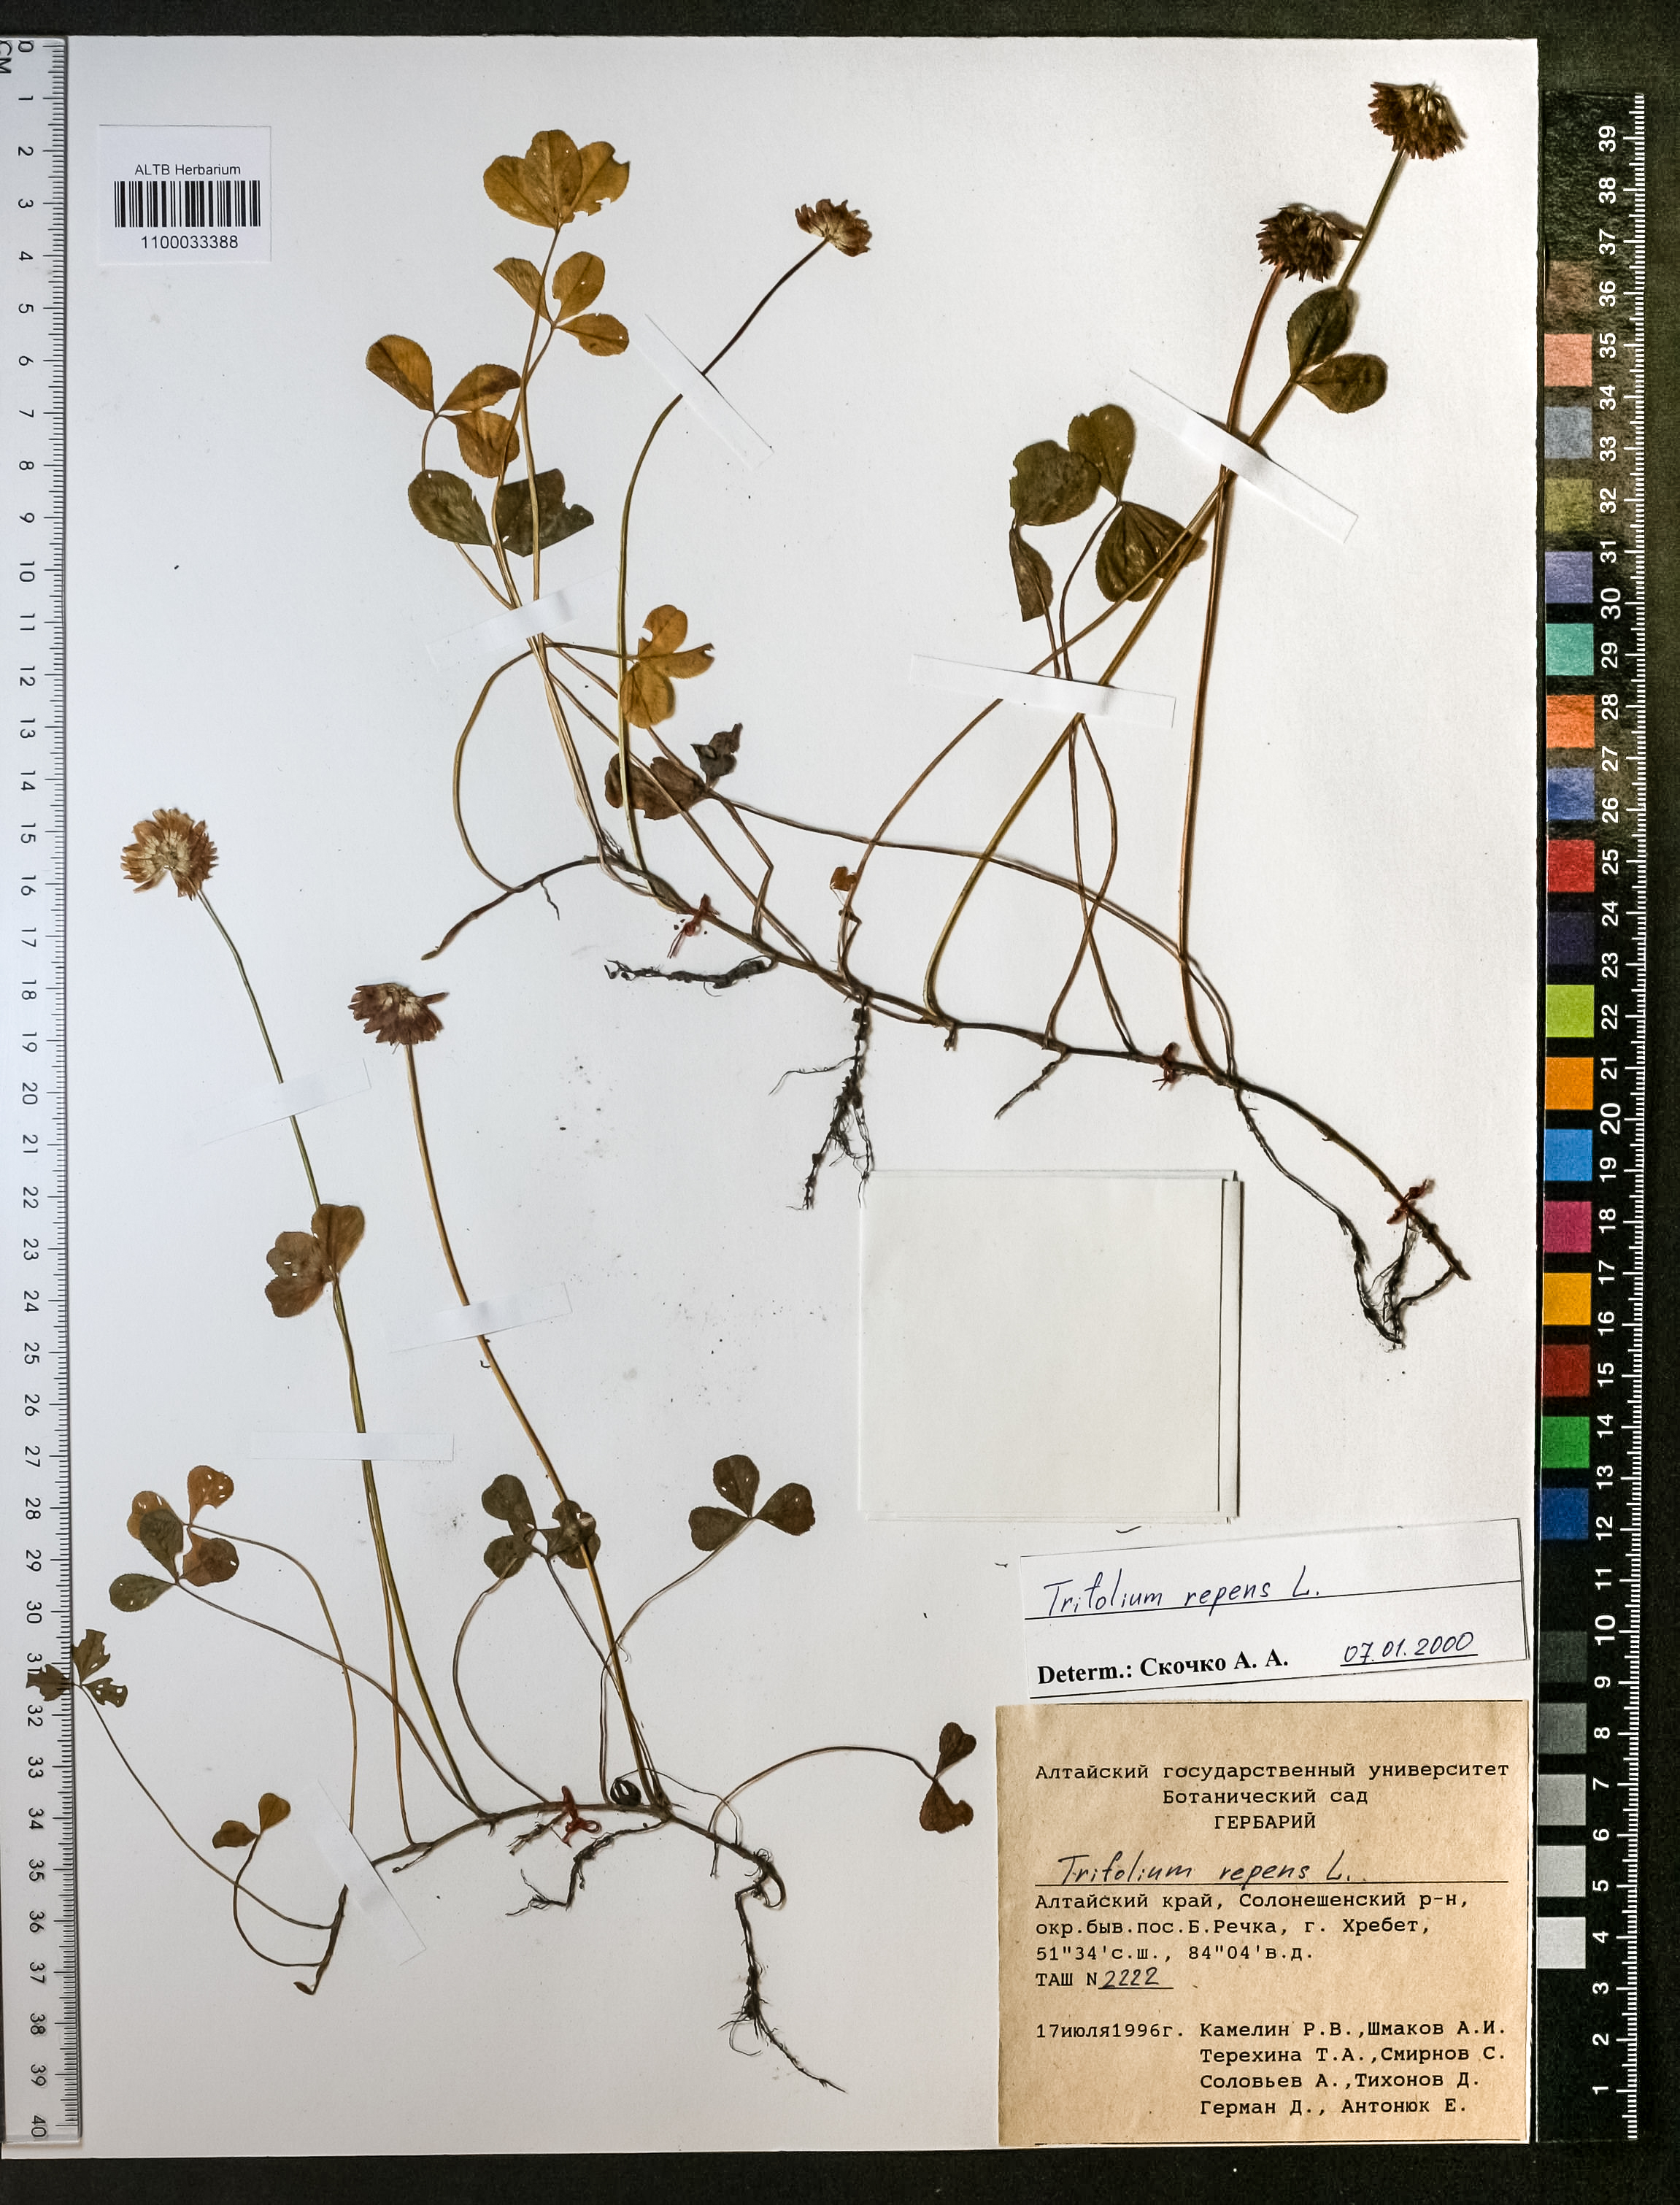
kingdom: Plantae
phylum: Tracheophyta
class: Magnoliopsida
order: Fabales
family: Fabaceae
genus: Trifolium
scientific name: Trifolium repens
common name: White clover
